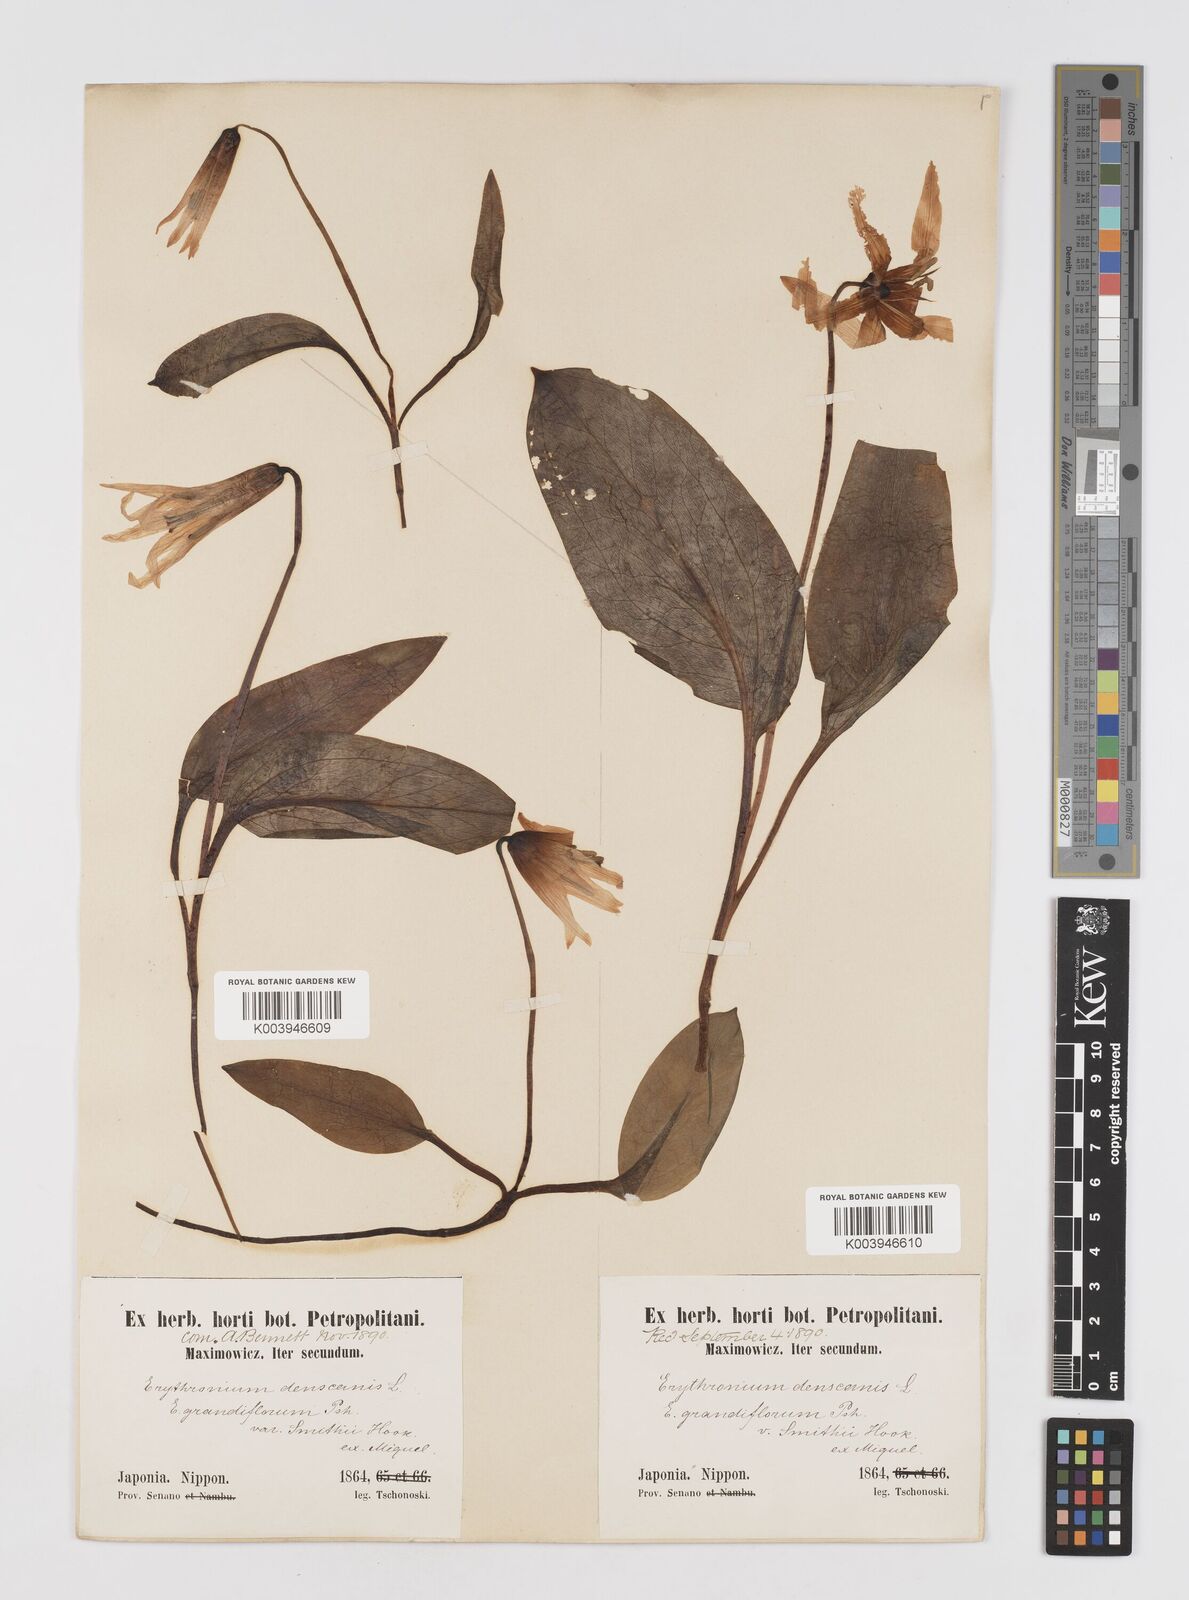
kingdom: Plantae
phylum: Tracheophyta
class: Liliopsida
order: Liliales
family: Liliaceae
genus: Erythronium
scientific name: Erythronium japonicum
